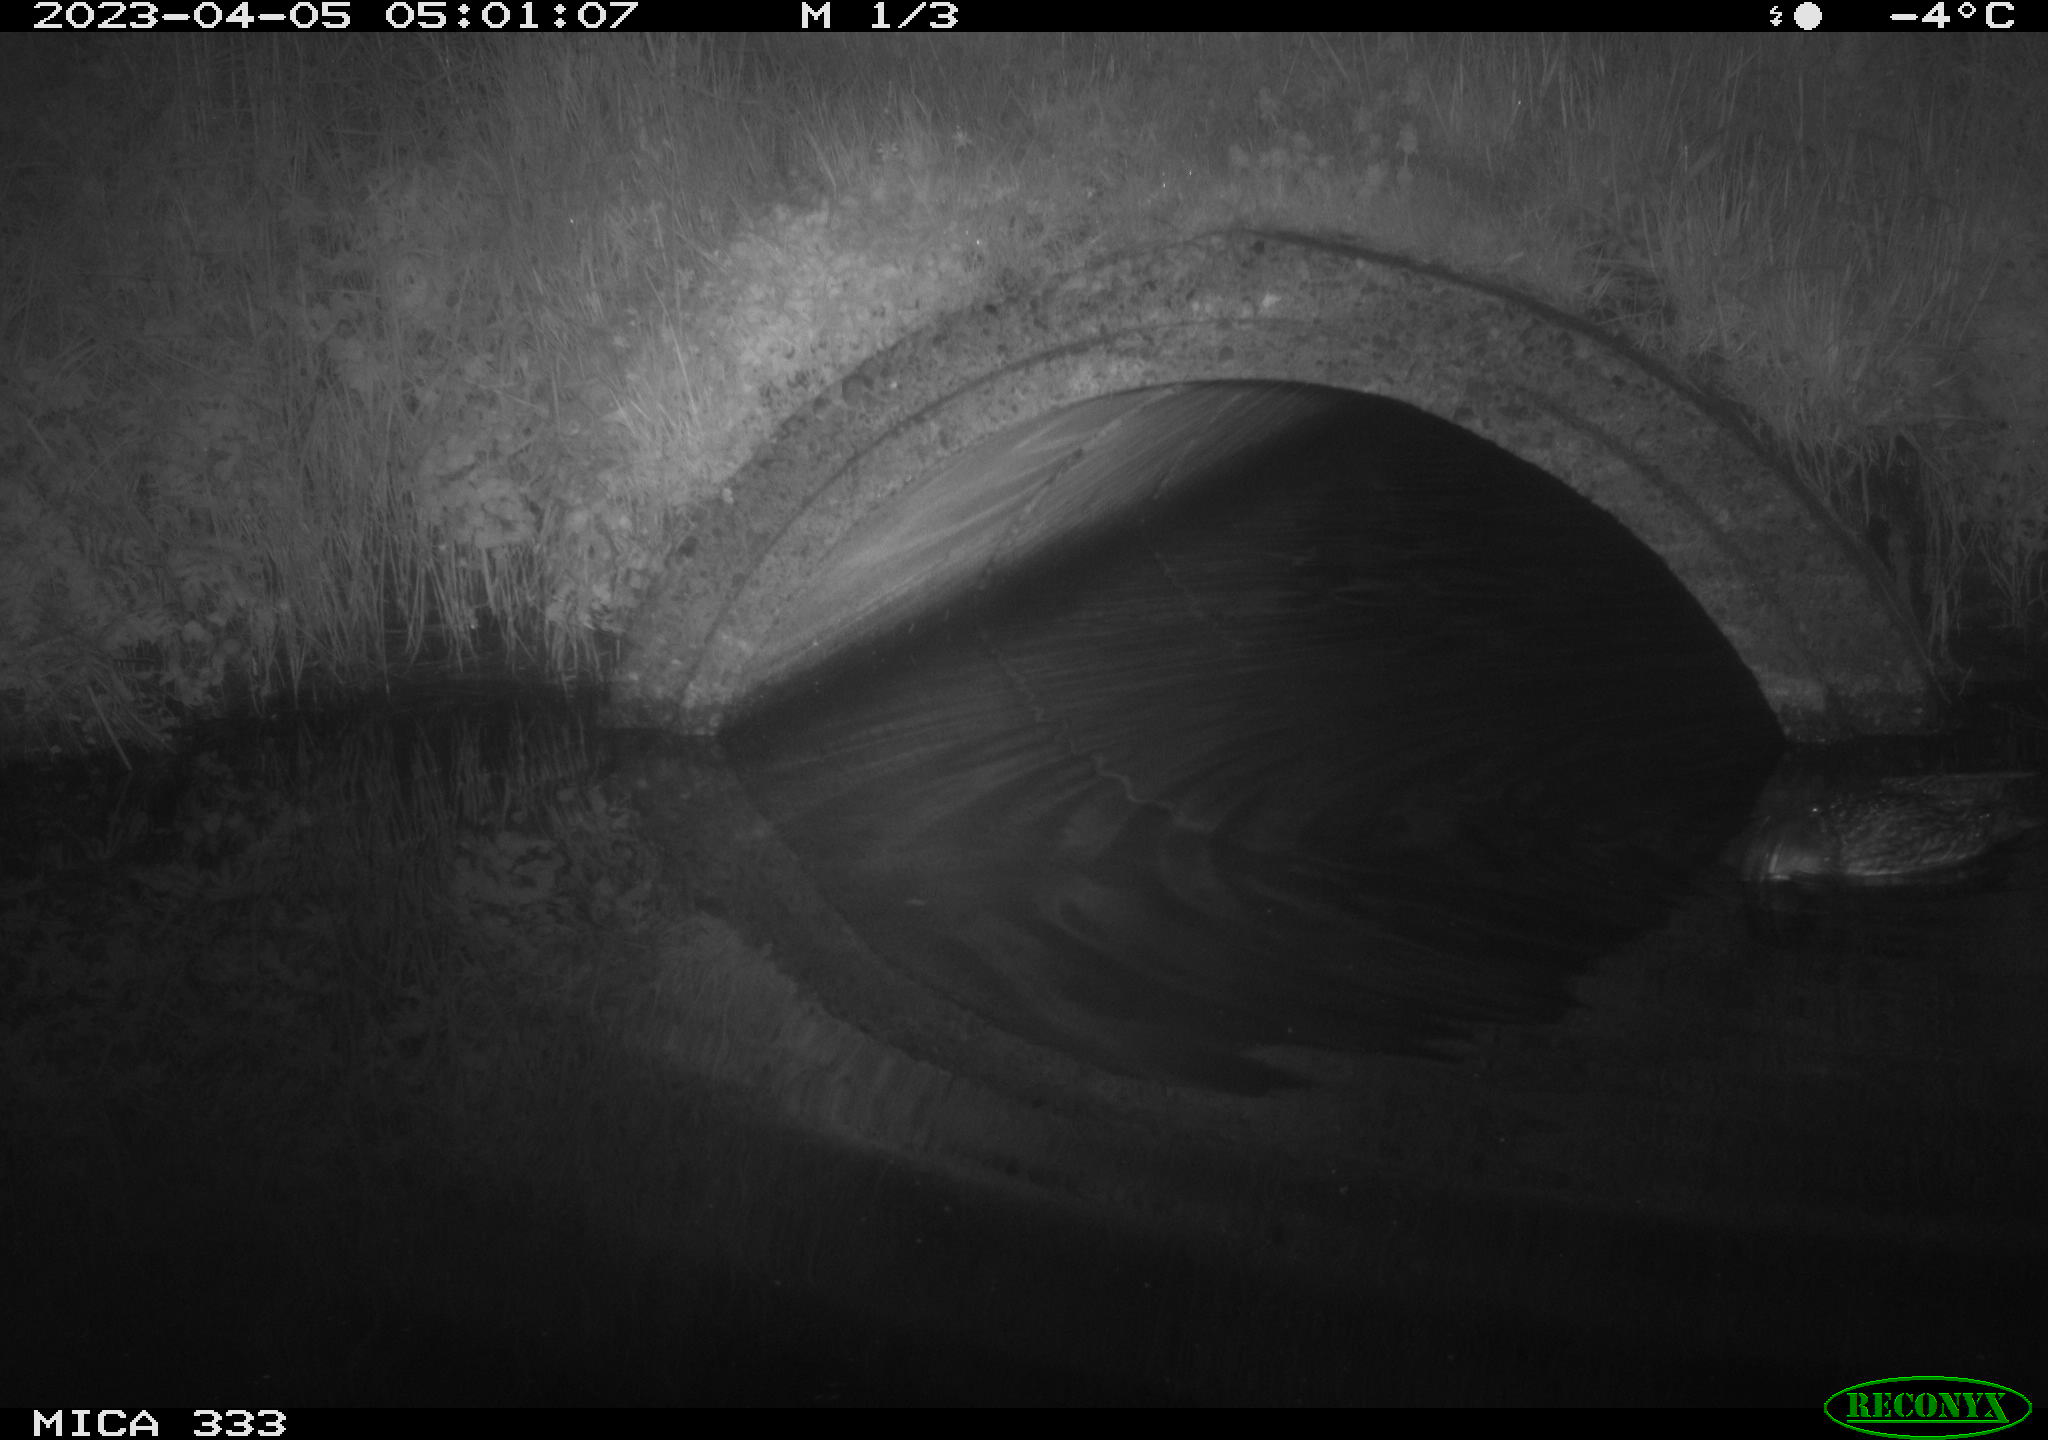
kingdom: Animalia
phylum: Chordata
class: Aves
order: Anseriformes
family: Anatidae
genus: Anas
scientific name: Anas
